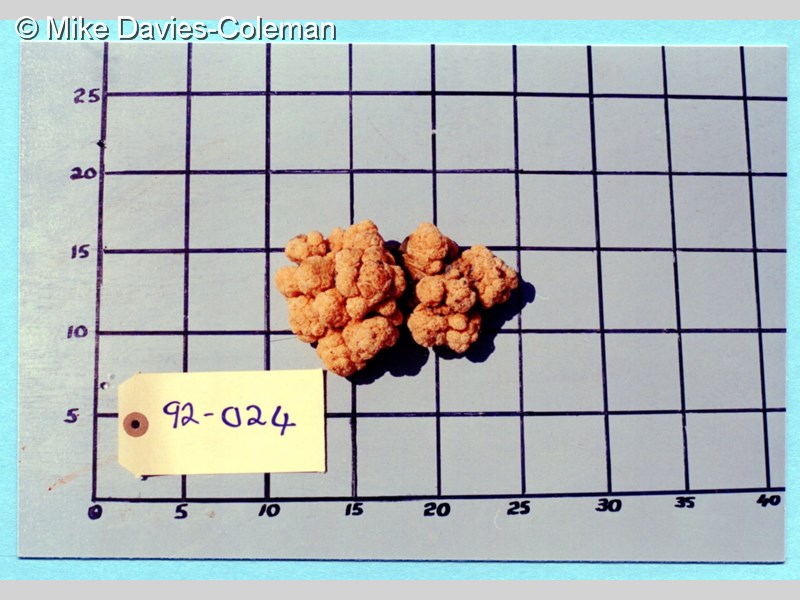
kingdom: Animalia
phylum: Cnidaria
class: Anthozoa
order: Malacalcyonacea
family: Capnellidae
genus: Eunephthya
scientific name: Eunephthya thyrsoidea
